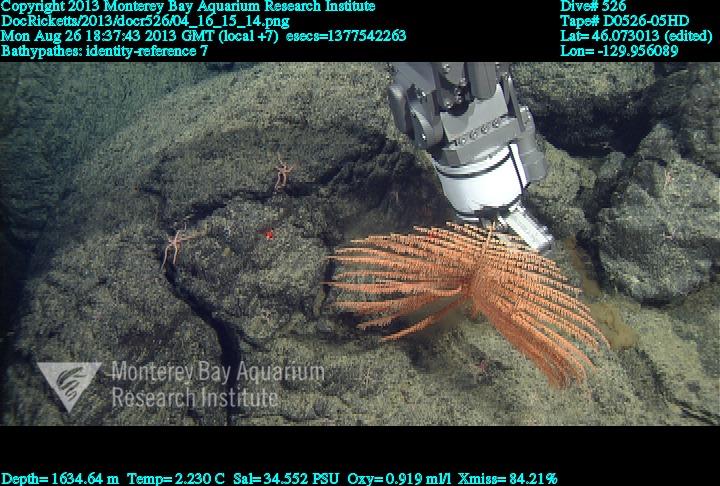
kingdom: Animalia
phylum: Cnidaria
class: Anthozoa
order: Antipatharia
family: Schizopathidae
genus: Bathypathes
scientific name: Bathypathes
